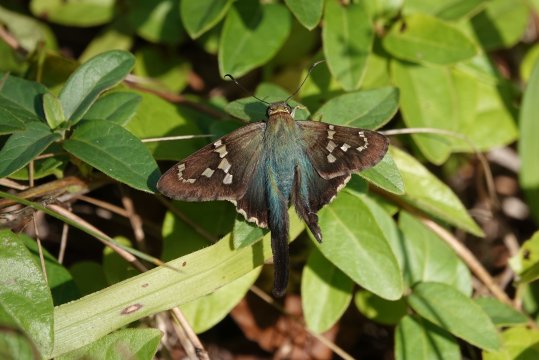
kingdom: Animalia
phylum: Arthropoda
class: Insecta
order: Lepidoptera
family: Hesperiidae
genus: Urbanus
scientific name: Urbanus proteus
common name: Long-tailed Skipper
